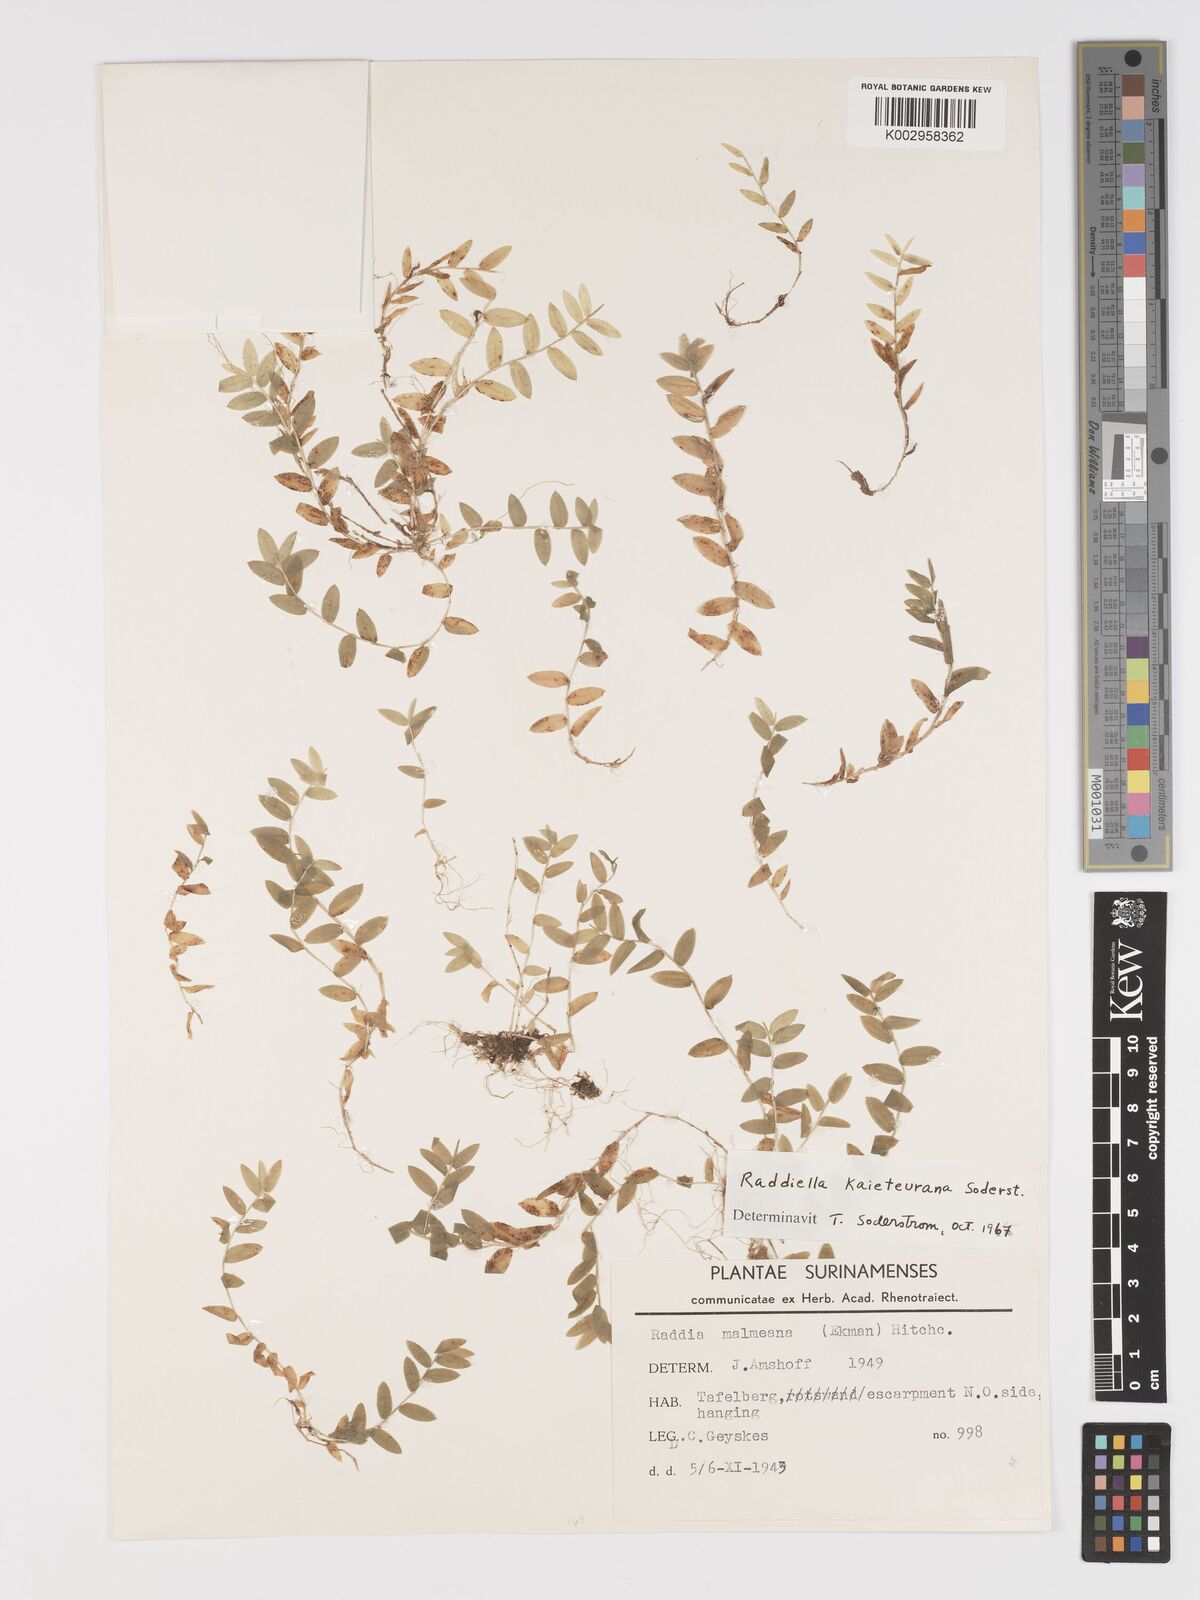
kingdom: Plantae
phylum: Tracheophyta
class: Liliopsida
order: Poales
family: Poaceae
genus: Raddiella
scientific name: Raddiella kaieteurana
